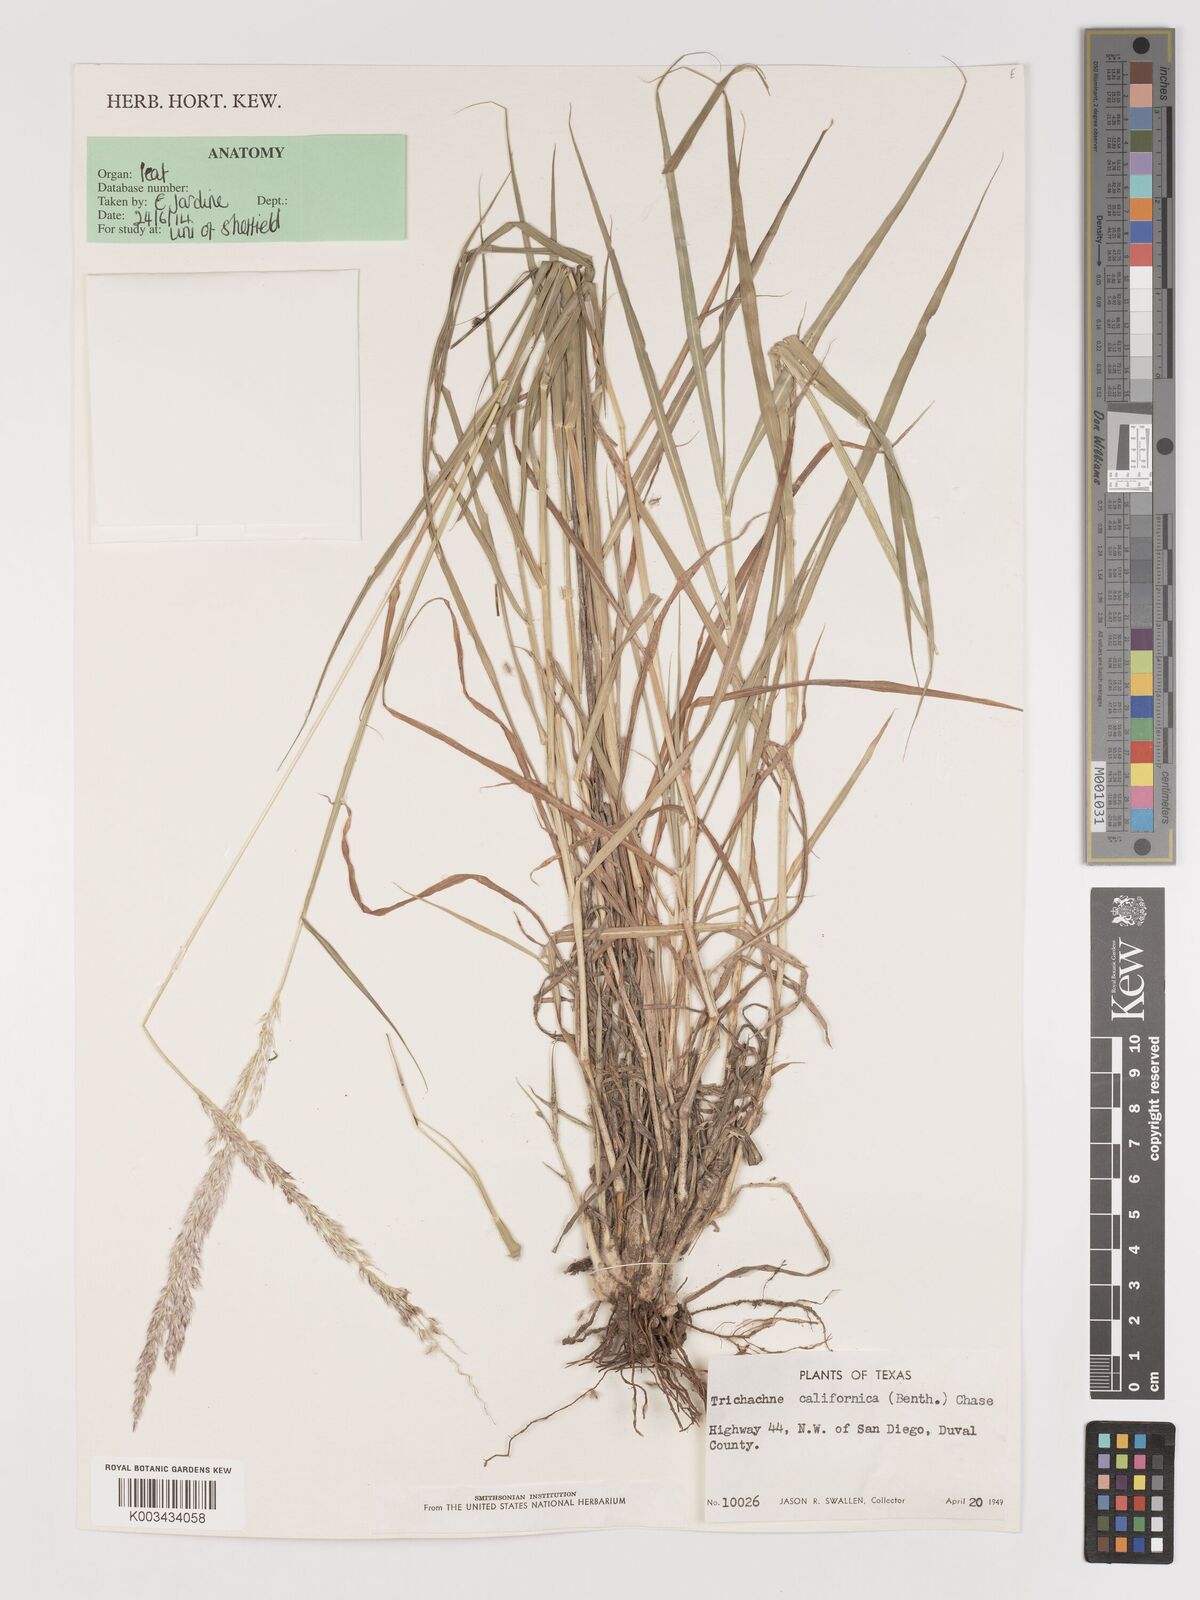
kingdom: Plantae
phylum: Tracheophyta
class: Liliopsida
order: Poales
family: Poaceae
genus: Digitaria
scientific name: Digitaria californica
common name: Arizona cottontop
